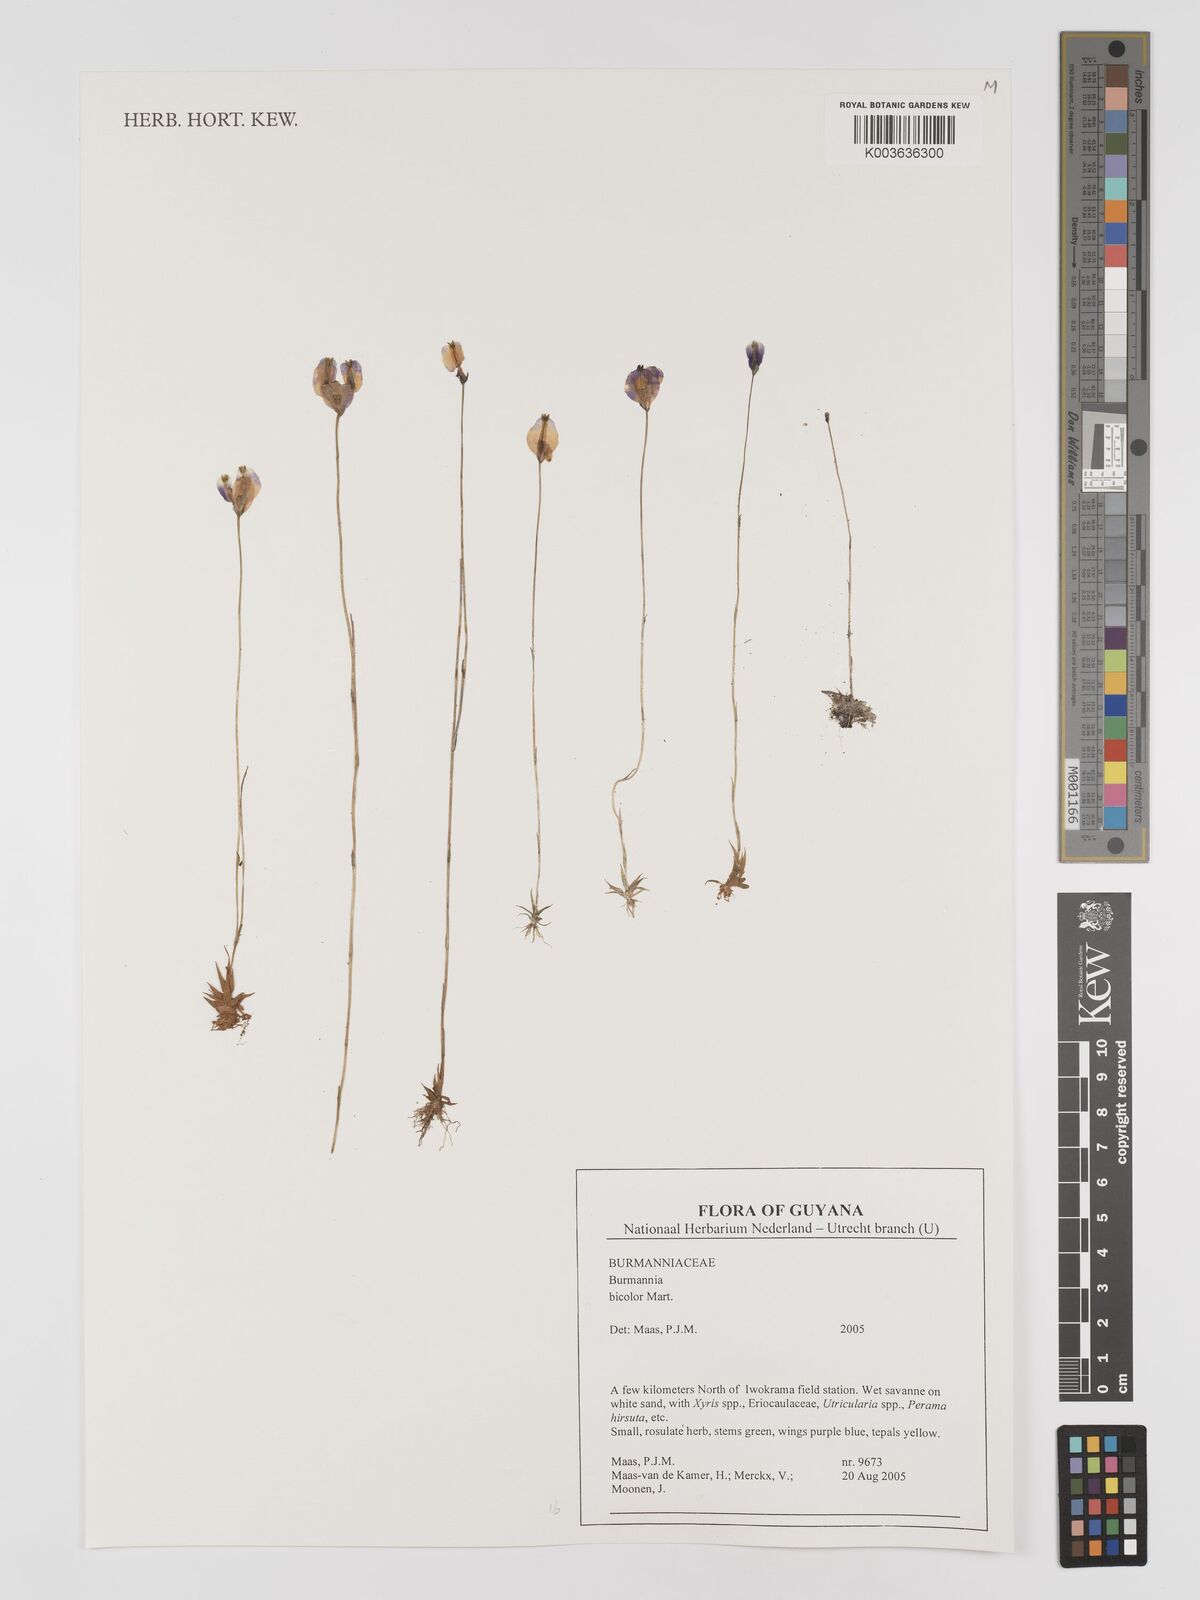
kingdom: Plantae
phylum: Tracheophyta
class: Liliopsida
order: Dioscoreales
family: Burmanniaceae
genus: Burmannia
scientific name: Burmannia bicolor
